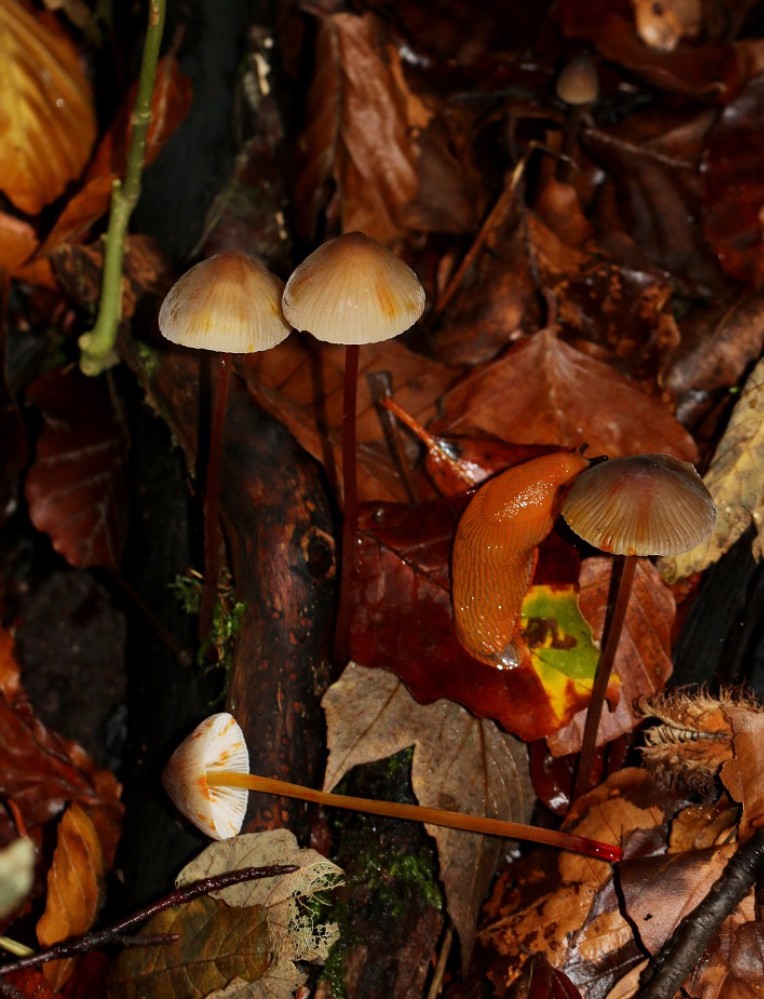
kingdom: Fungi
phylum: Basidiomycota
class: Agaricomycetes
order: Agaricales
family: Mycenaceae
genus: Mycena
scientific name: Mycena crocata
